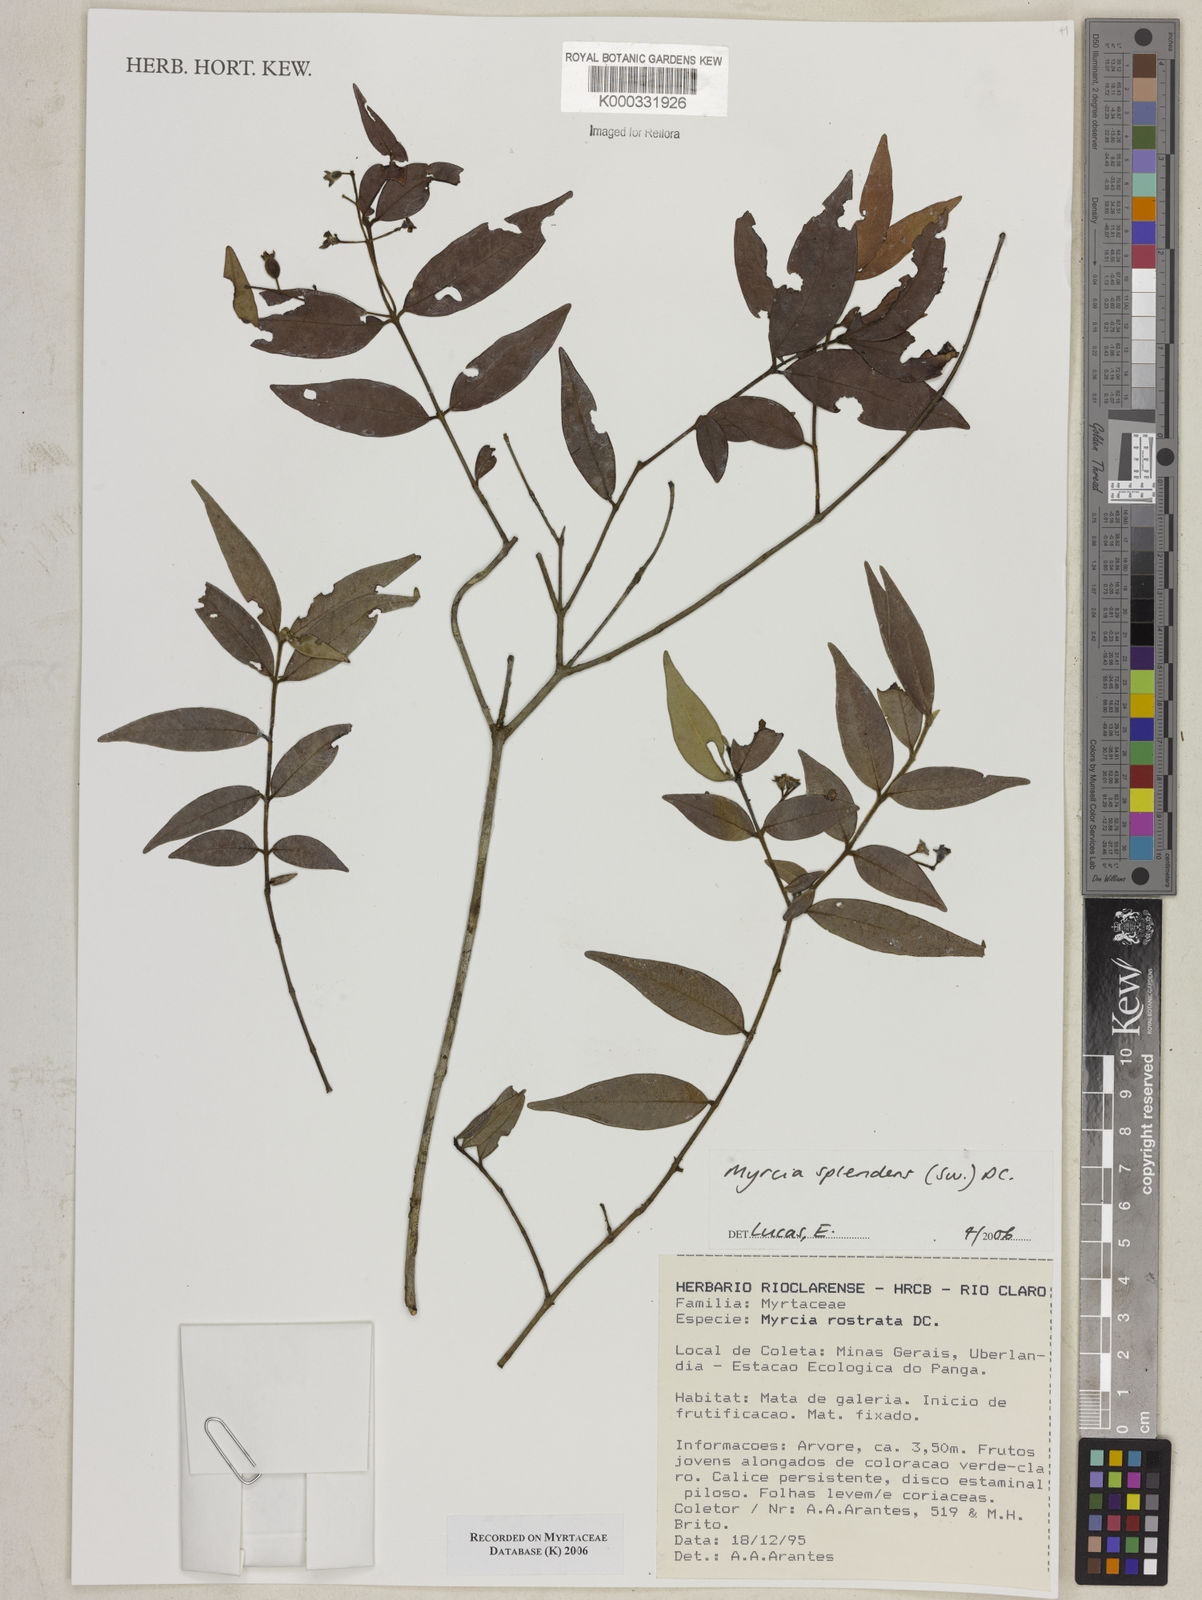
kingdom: Plantae
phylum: Tracheophyta
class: Magnoliopsida
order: Myrtales
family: Myrtaceae
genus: Myrcia
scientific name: Myrcia splendens
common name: Surinam cherry
